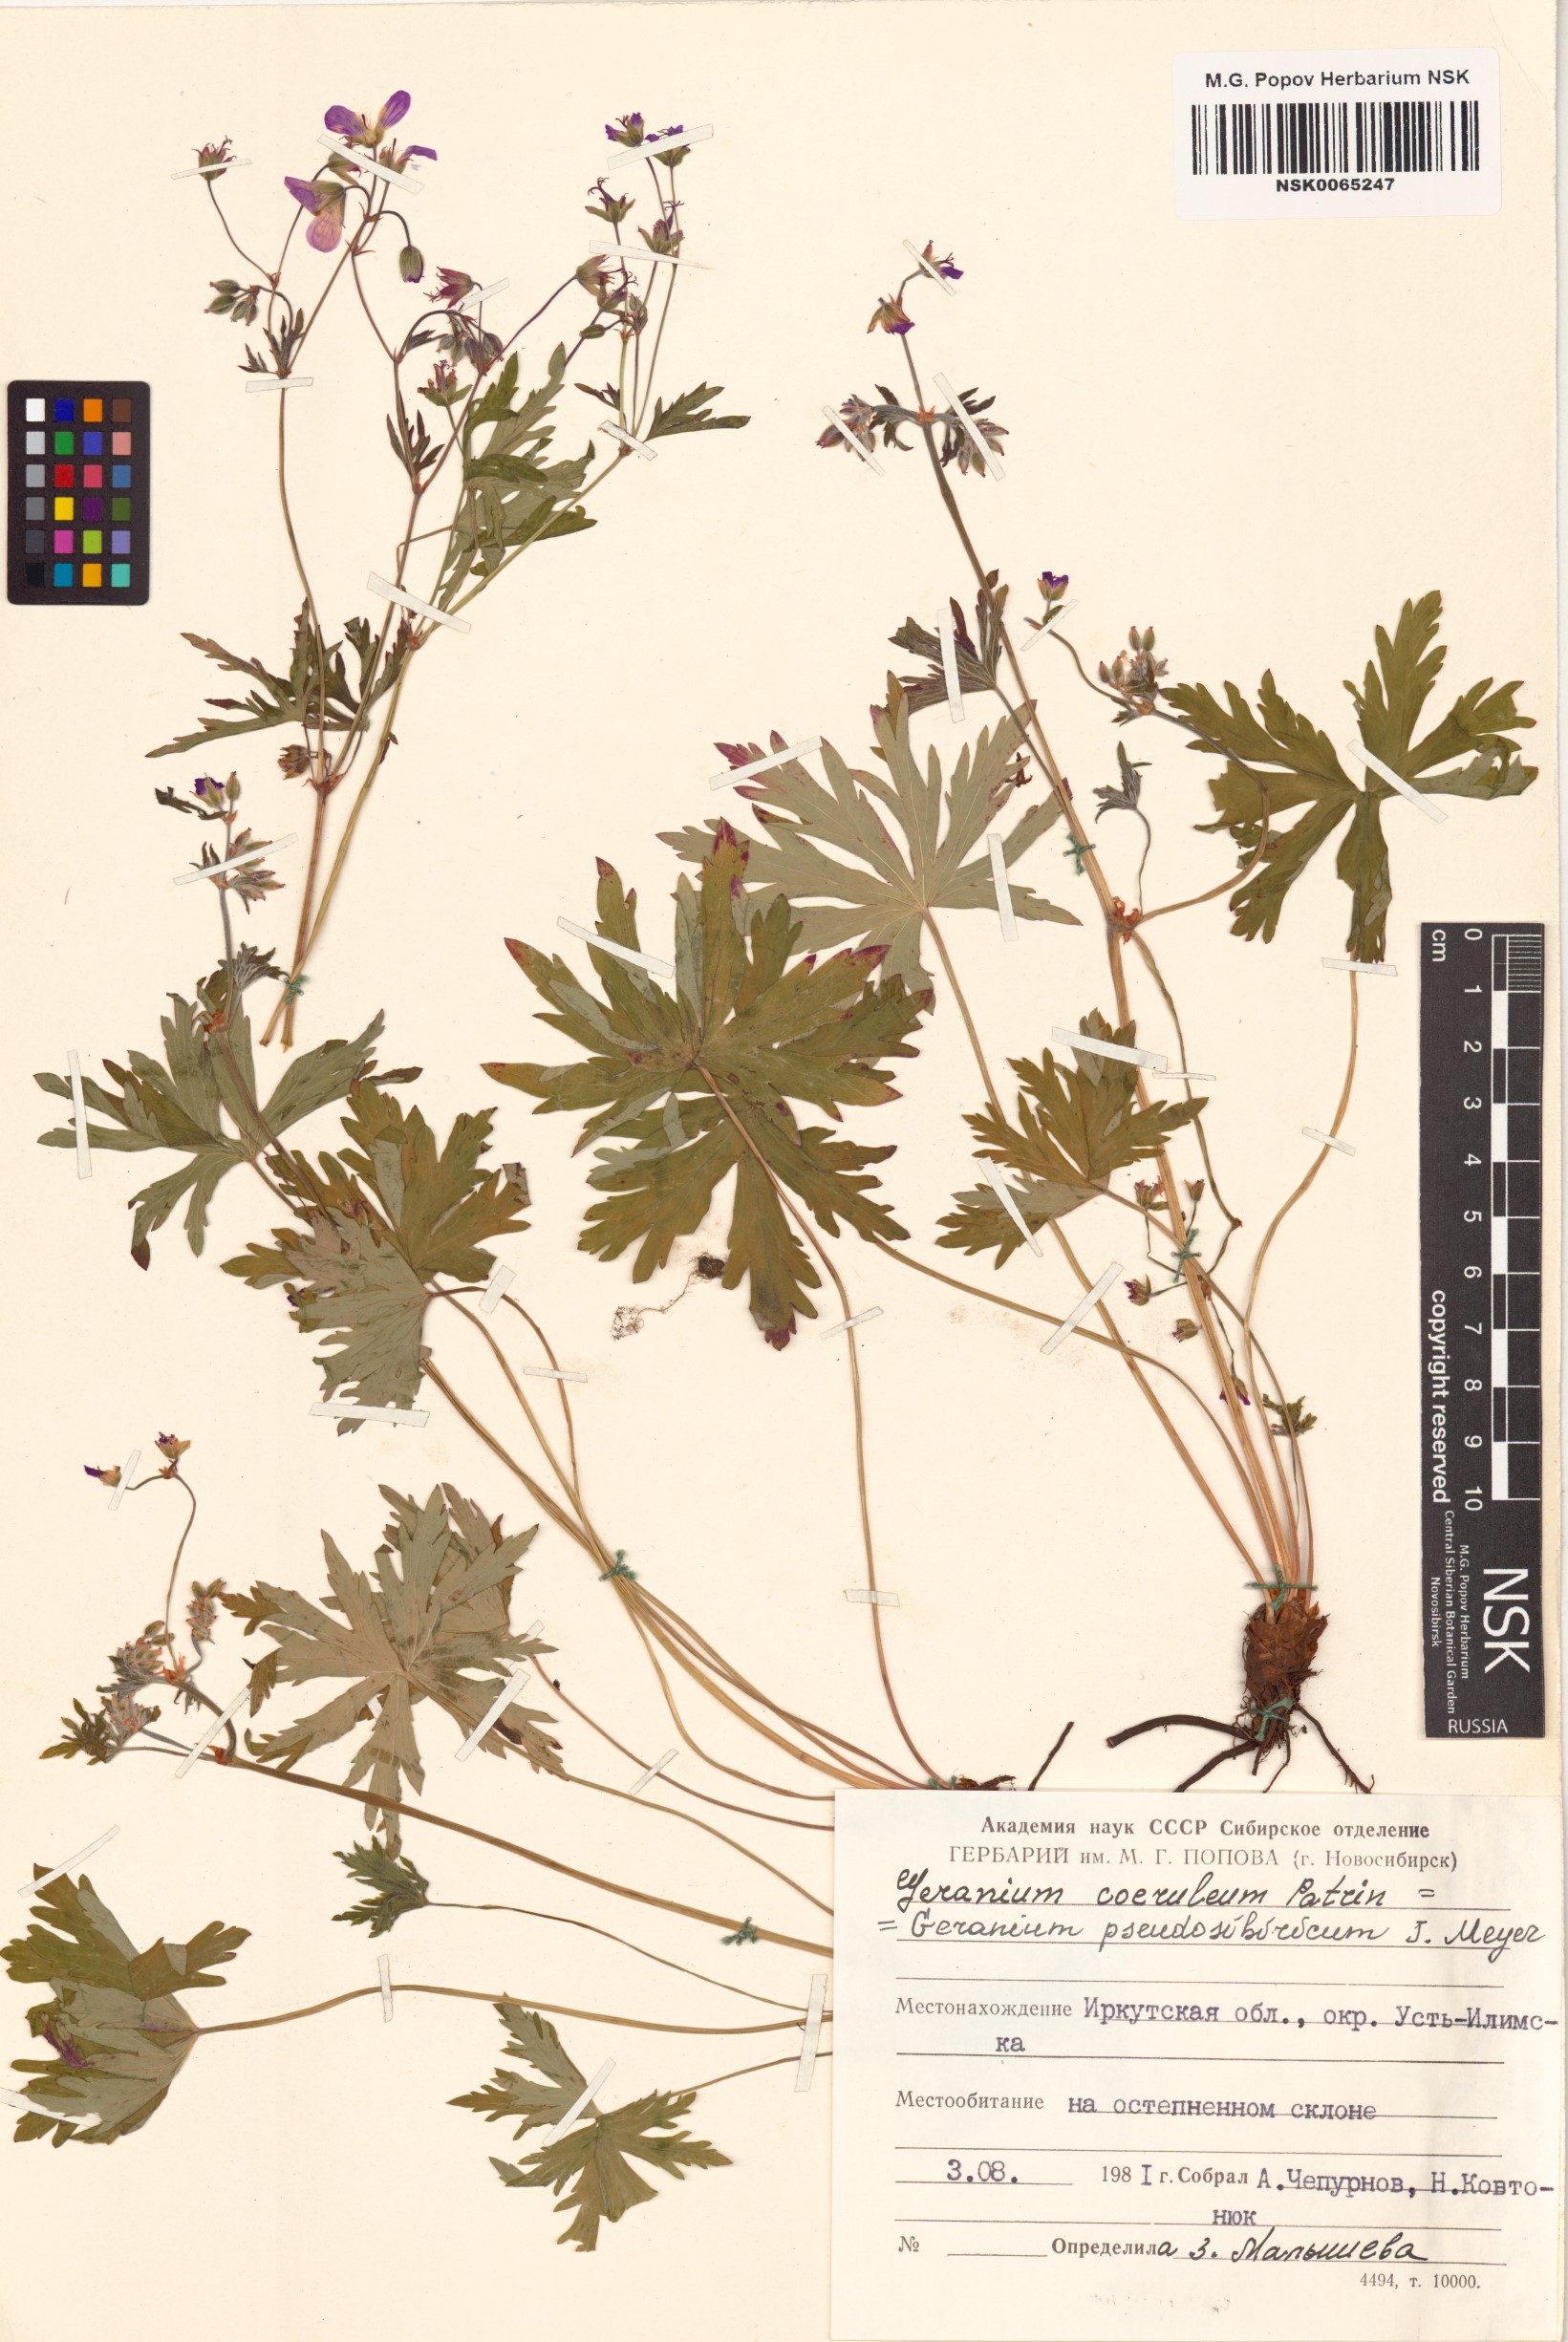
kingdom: Plantae
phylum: Tracheophyta
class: Magnoliopsida
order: Geraniales
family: Geraniaceae
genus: Geranium
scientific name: Geranium pseudosibiricum
